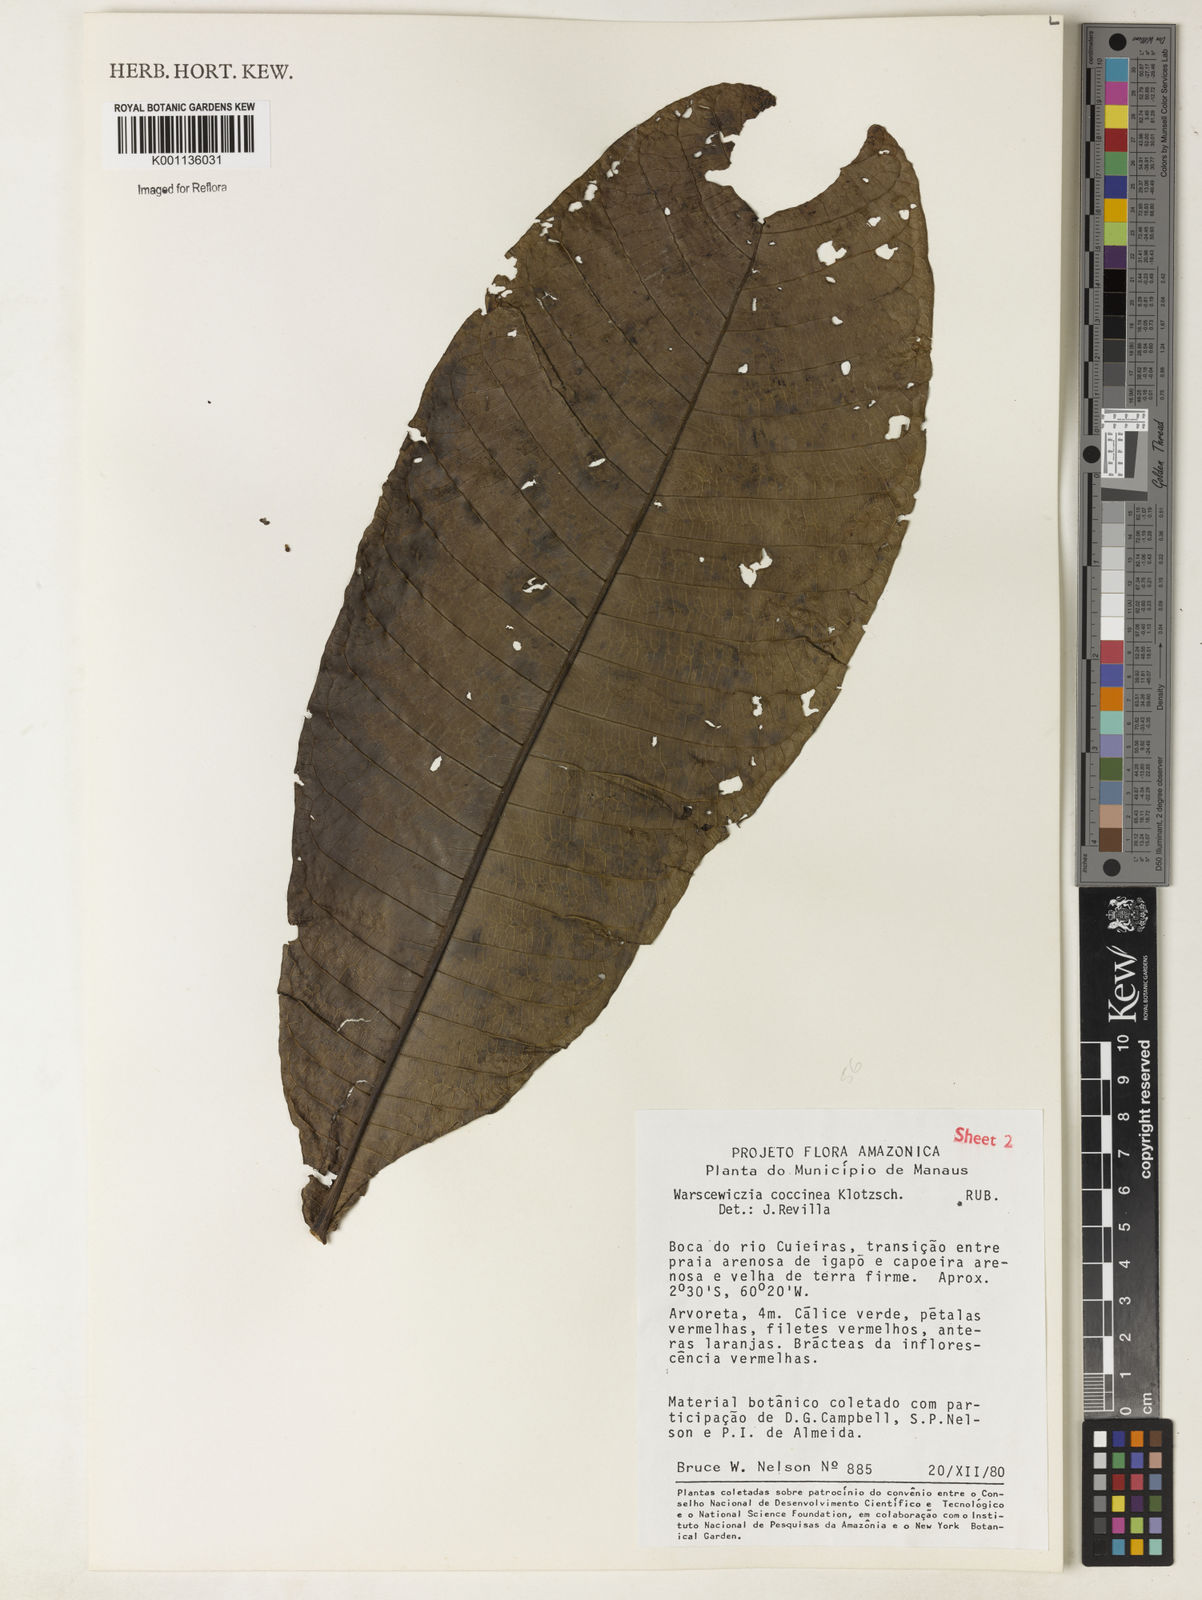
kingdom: Plantae
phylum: Tracheophyta
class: Magnoliopsida
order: Gentianales
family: Rubiaceae
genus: Warszewiczia
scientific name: Warszewiczia coccinea
